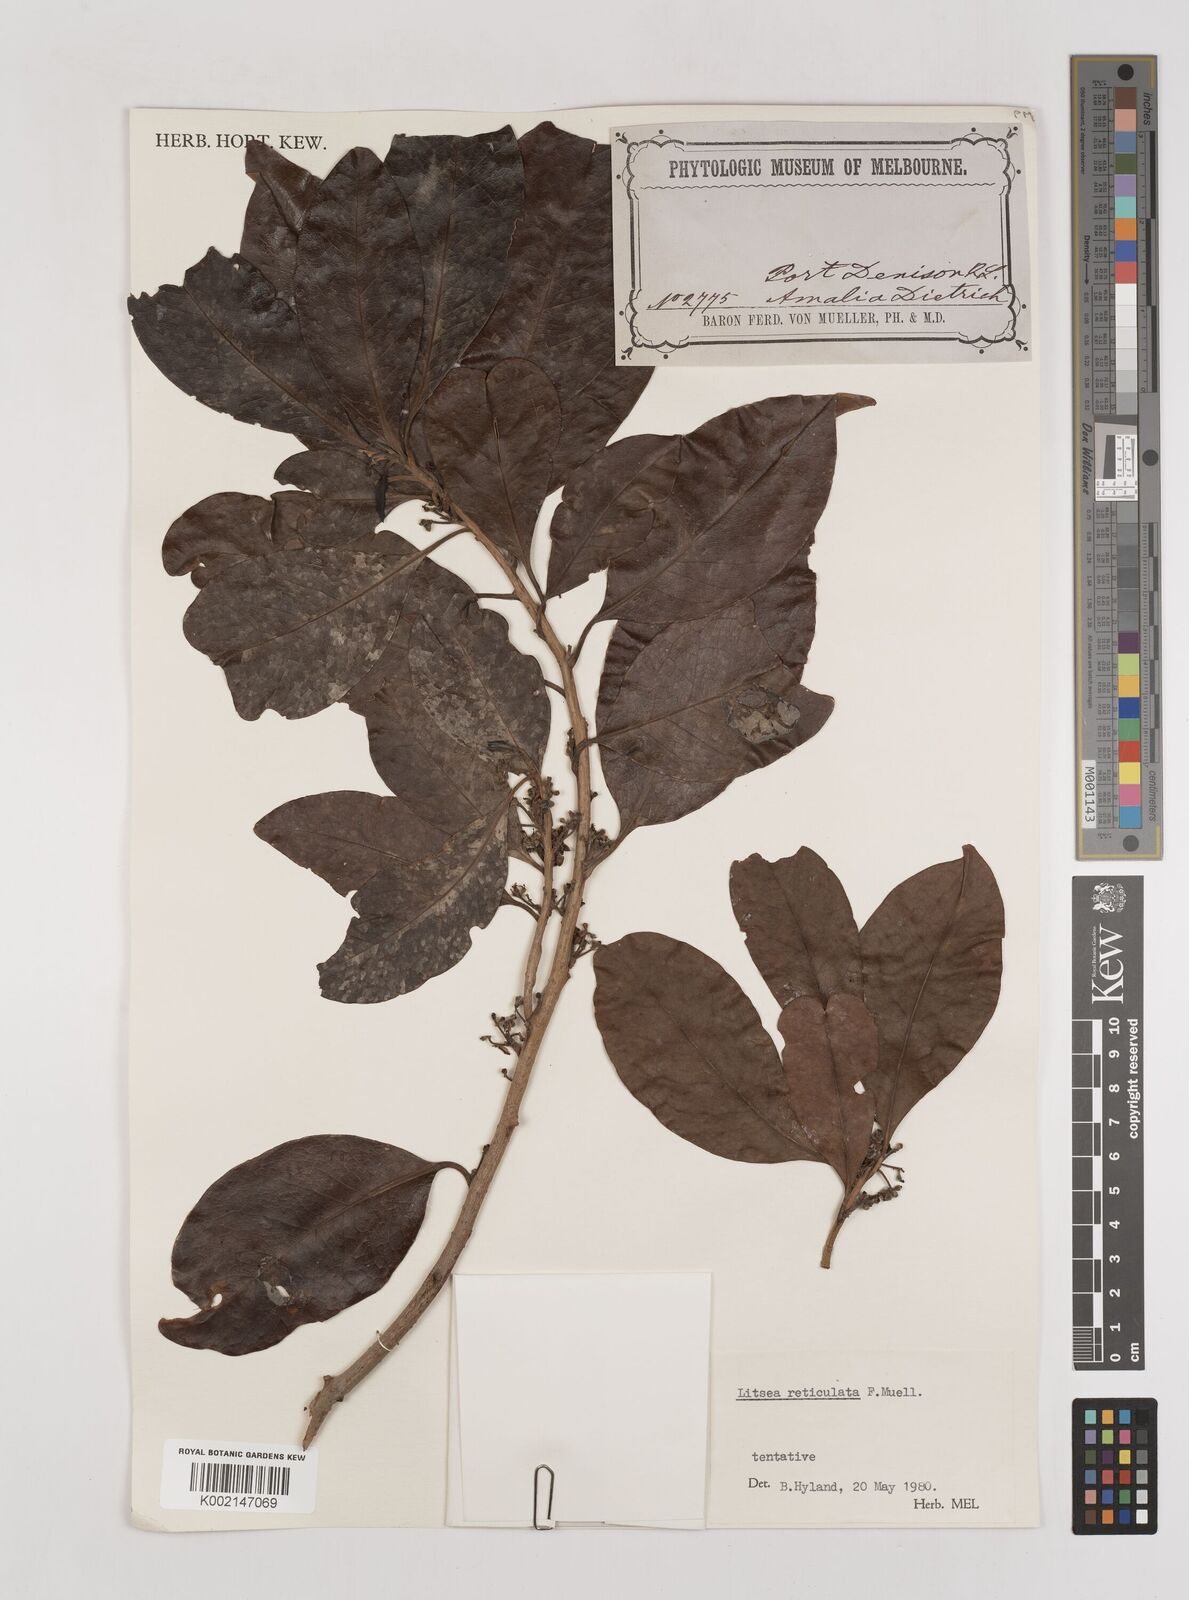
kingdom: Plantae
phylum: Tracheophyta
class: Magnoliopsida
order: Laurales
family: Lauraceae
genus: Litsea
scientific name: Litsea reticulata
